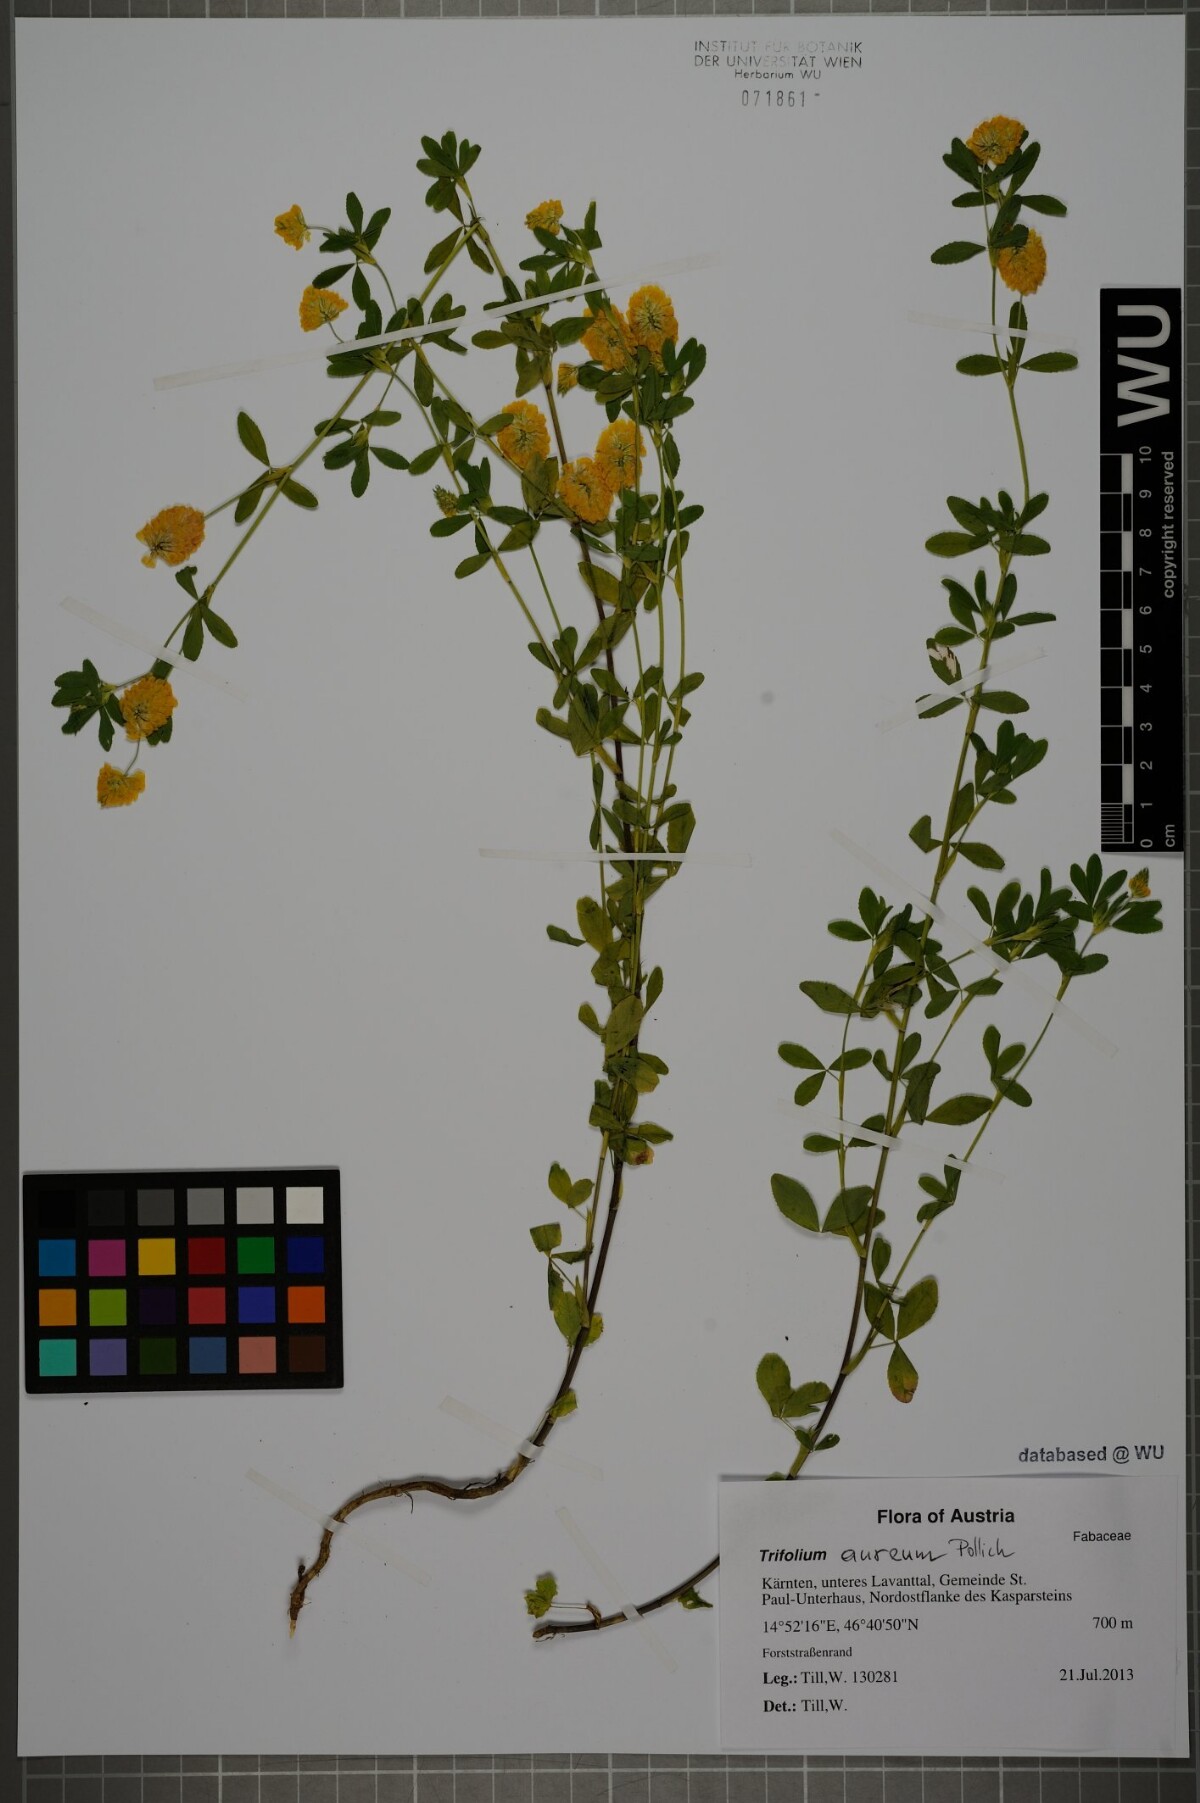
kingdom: Plantae
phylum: Tracheophyta
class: Magnoliopsida
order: Fabales
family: Fabaceae
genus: Trifolium
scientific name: Trifolium aureum
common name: Golden clover
